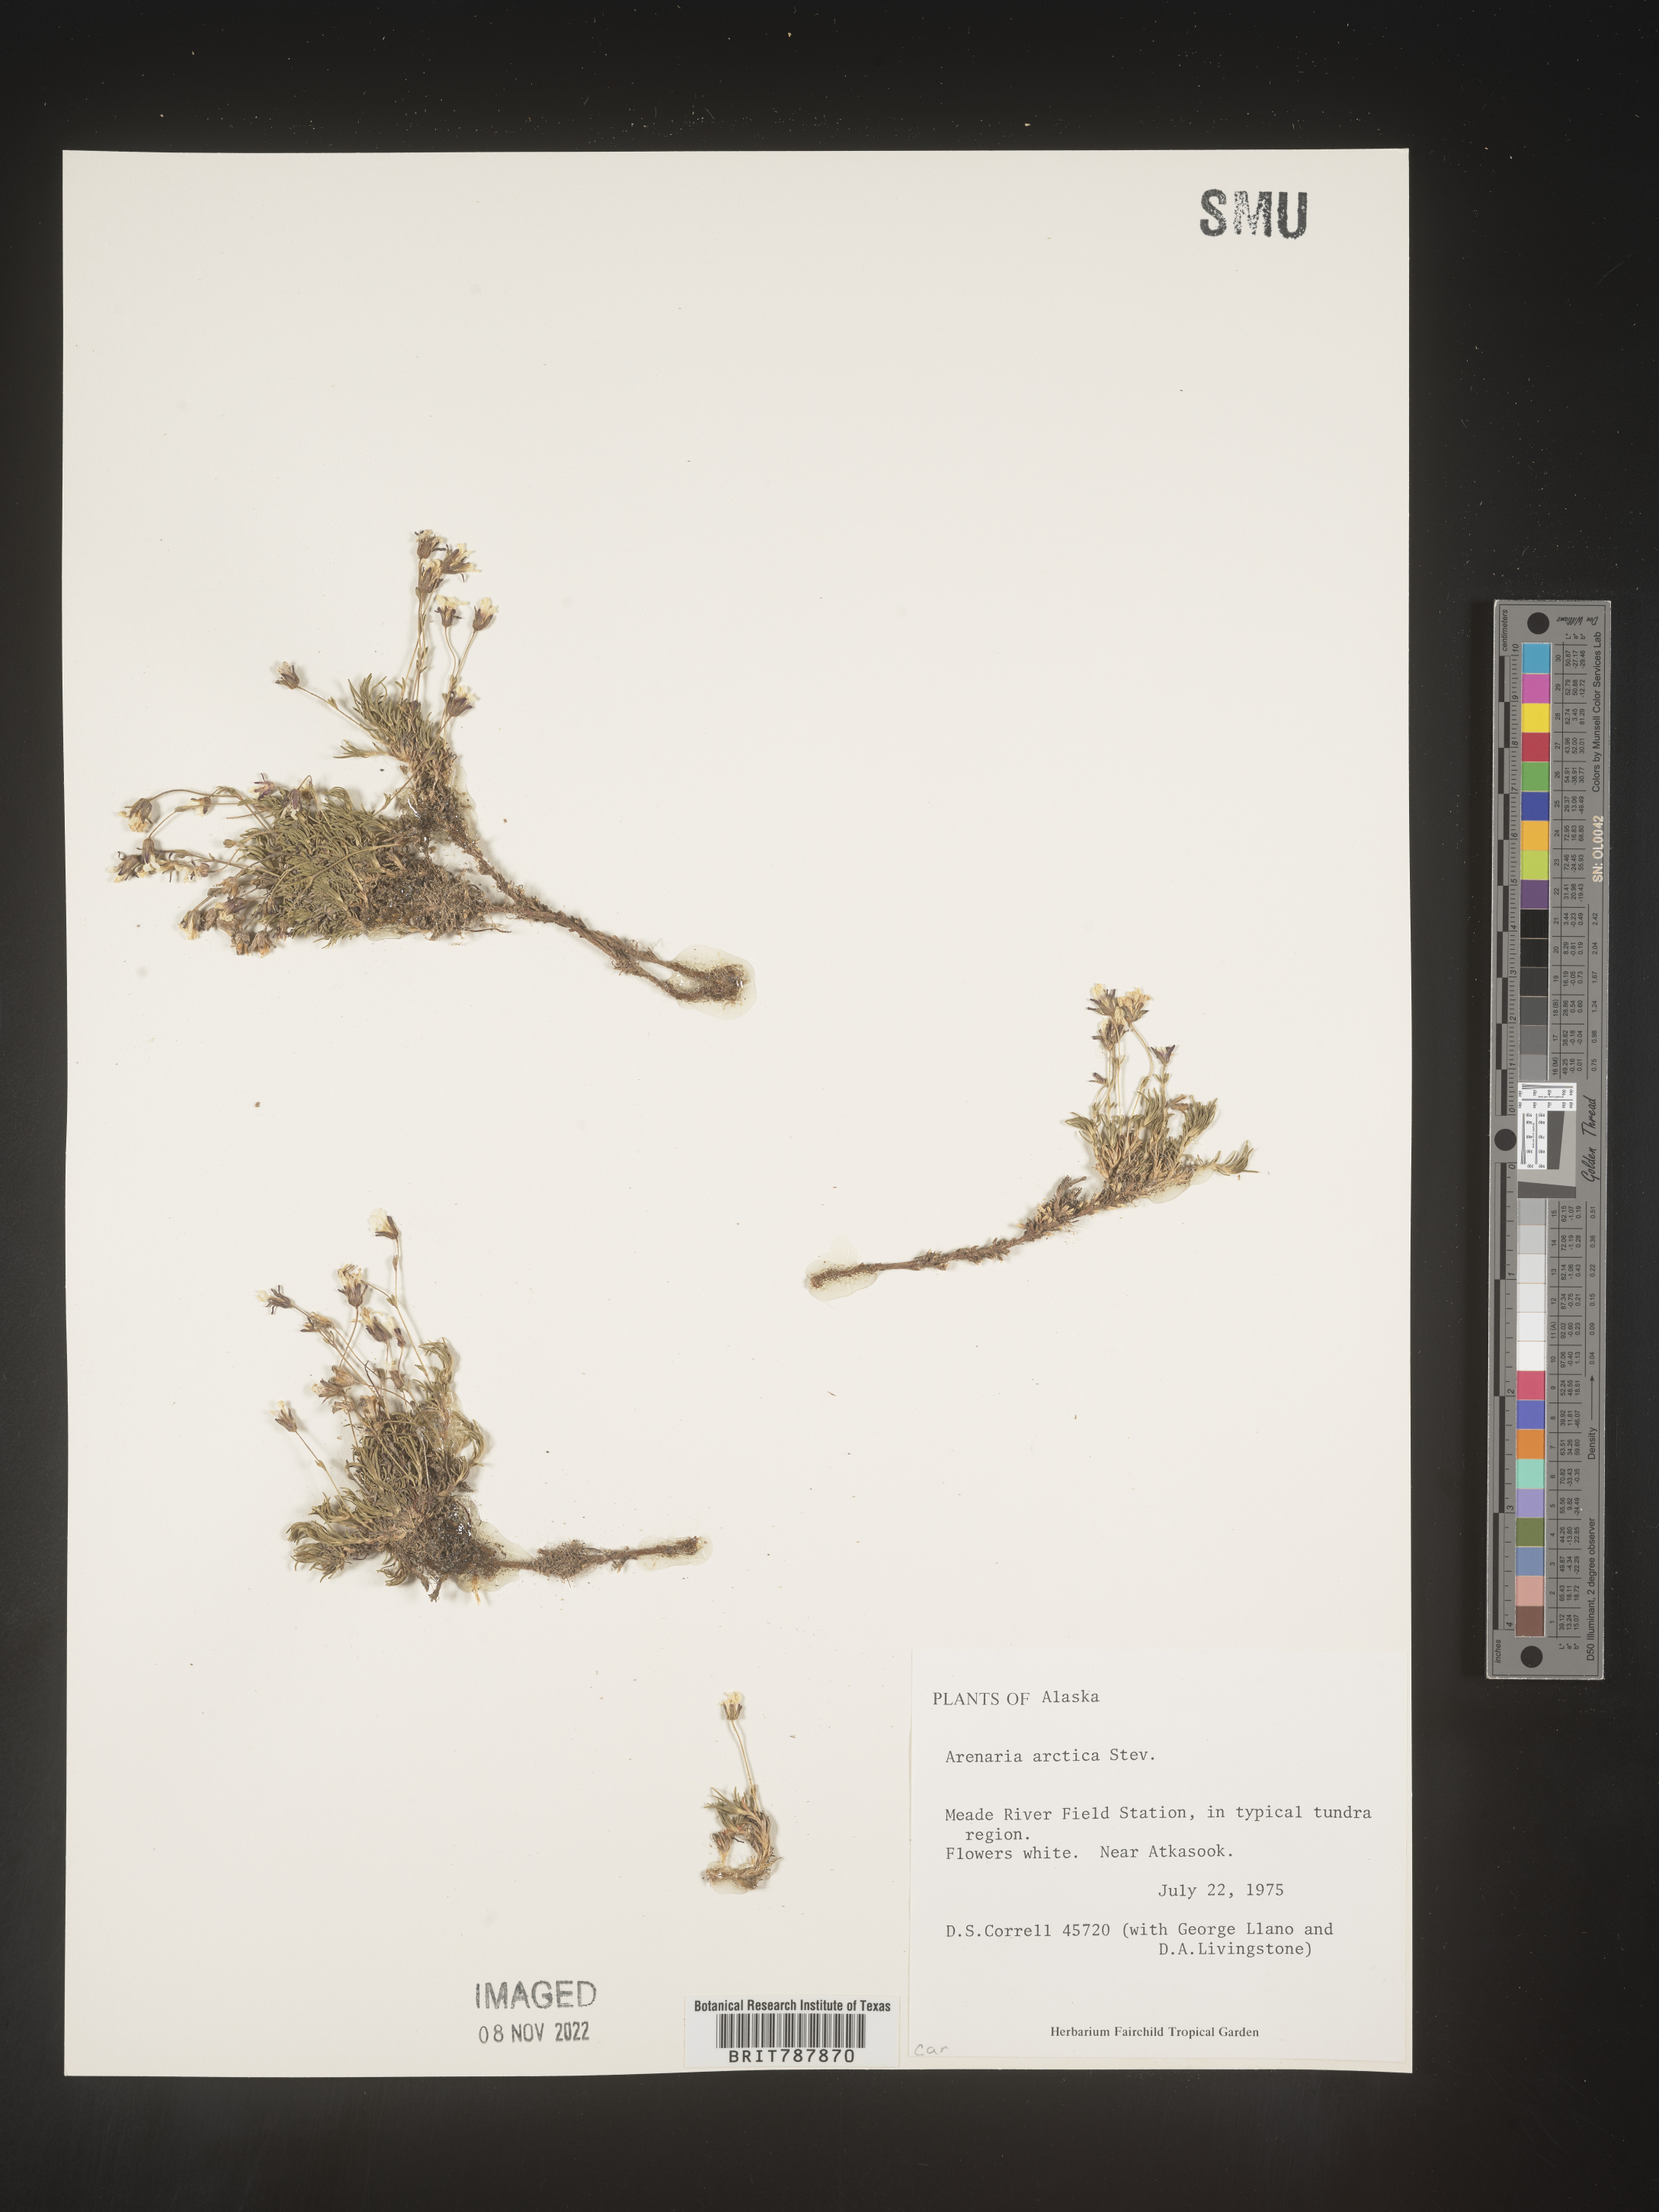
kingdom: Plantae
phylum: Tracheophyta
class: Magnoliopsida
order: Caryophyllales
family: Caryophyllaceae
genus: Arenaria
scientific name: Arenaria
